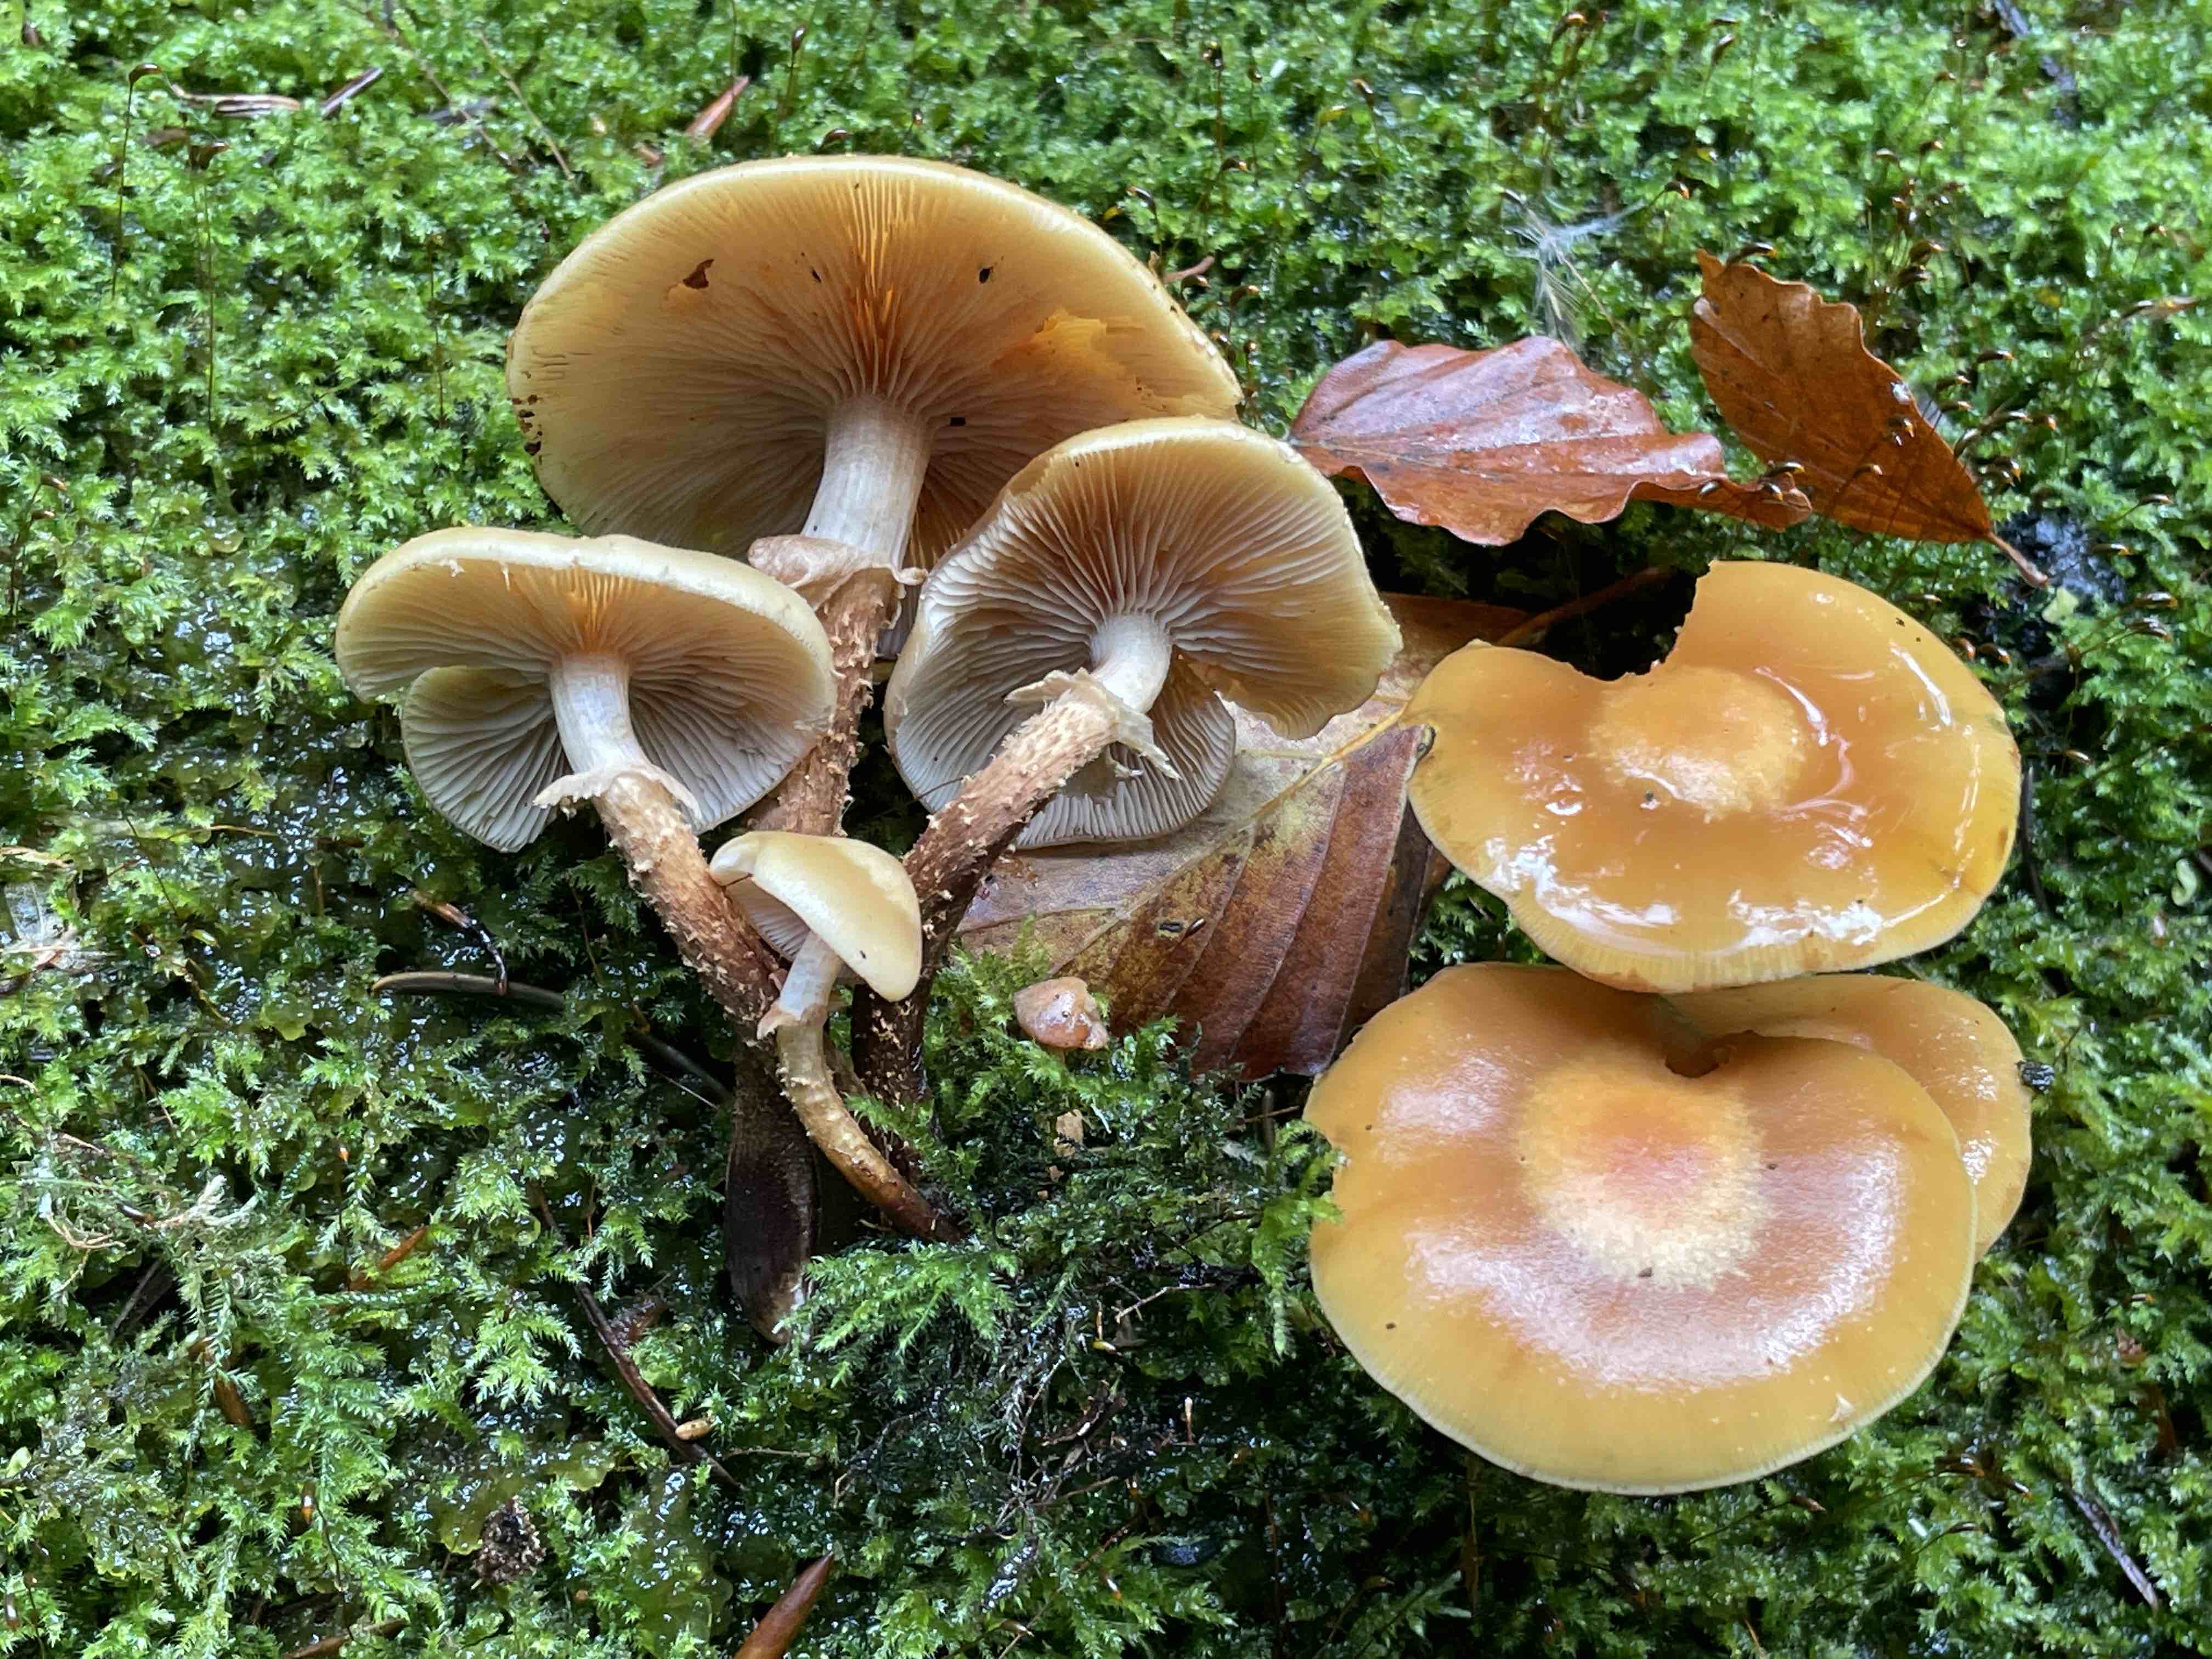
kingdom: Fungi
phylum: Basidiomycota
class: Agaricomycetes
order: Agaricales
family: Strophariaceae
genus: Kuehneromyces
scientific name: Kuehneromyces mutabilis
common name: foranderlig skælhat
